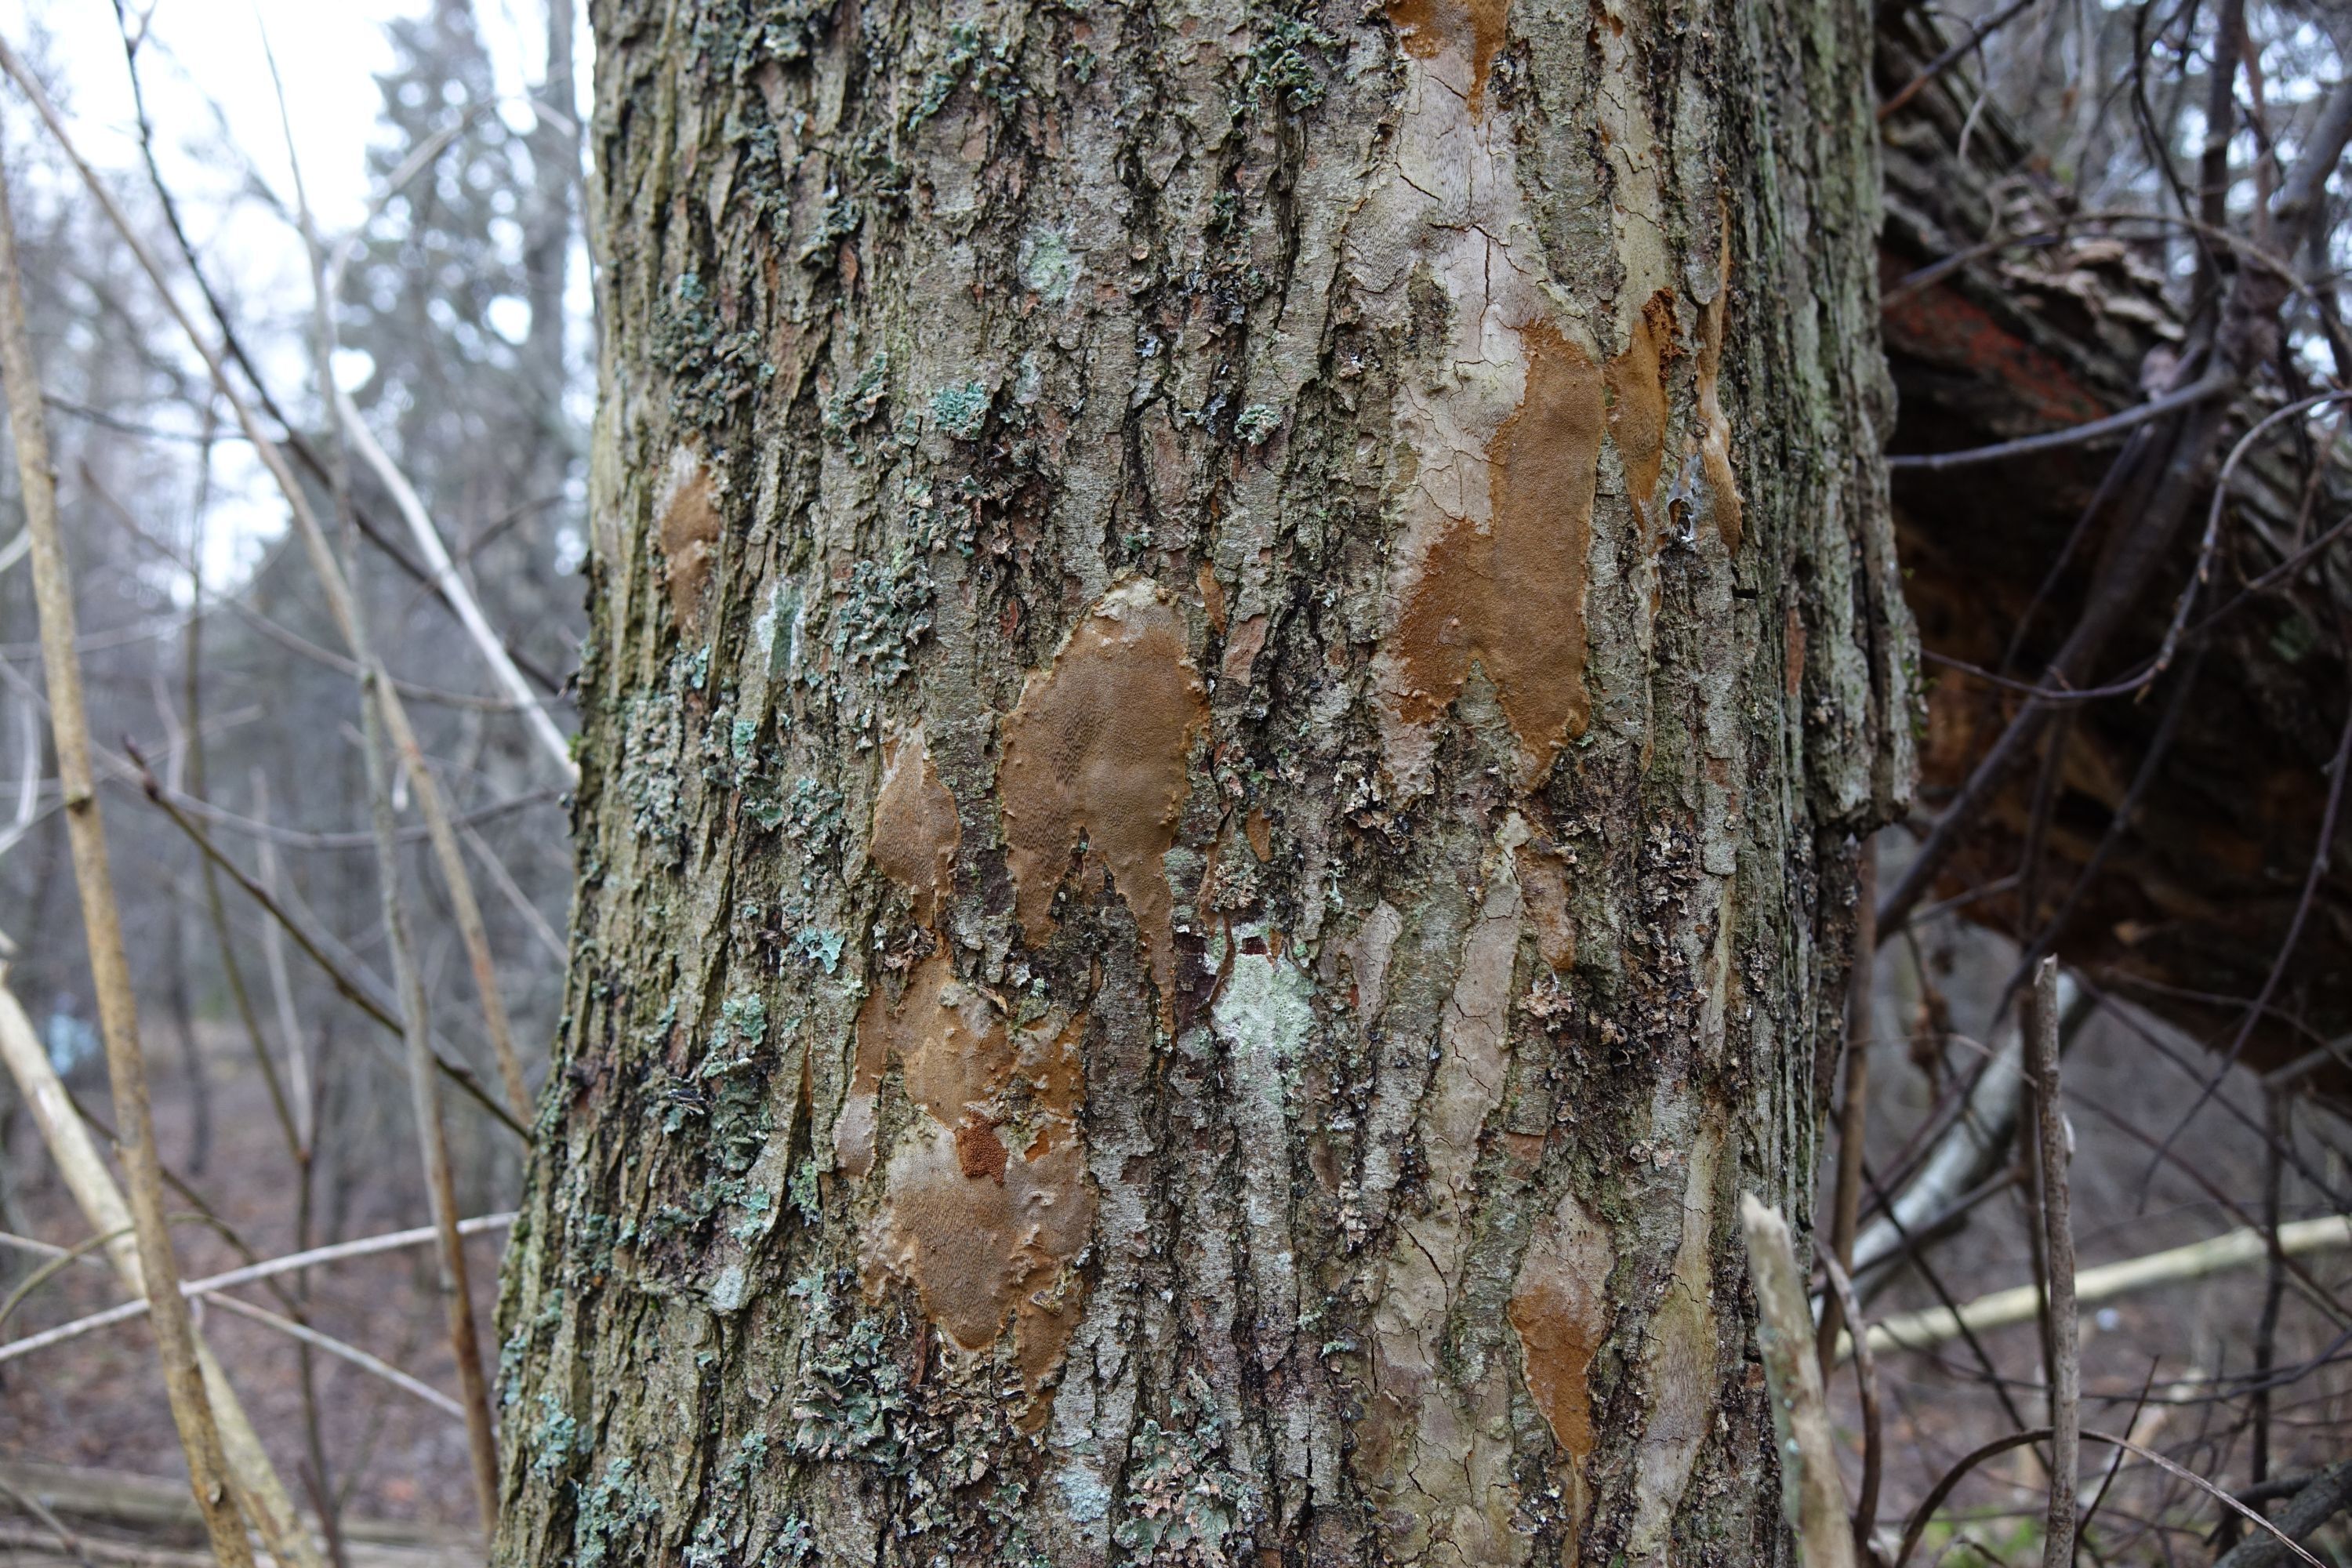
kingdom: Fungi
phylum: Basidiomycota
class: Agaricomycetes
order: Hymenochaetales
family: Hymenochaetaceae
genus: Fomitiporia
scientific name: Fomitiporia punctata
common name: Elbowpatch crust
